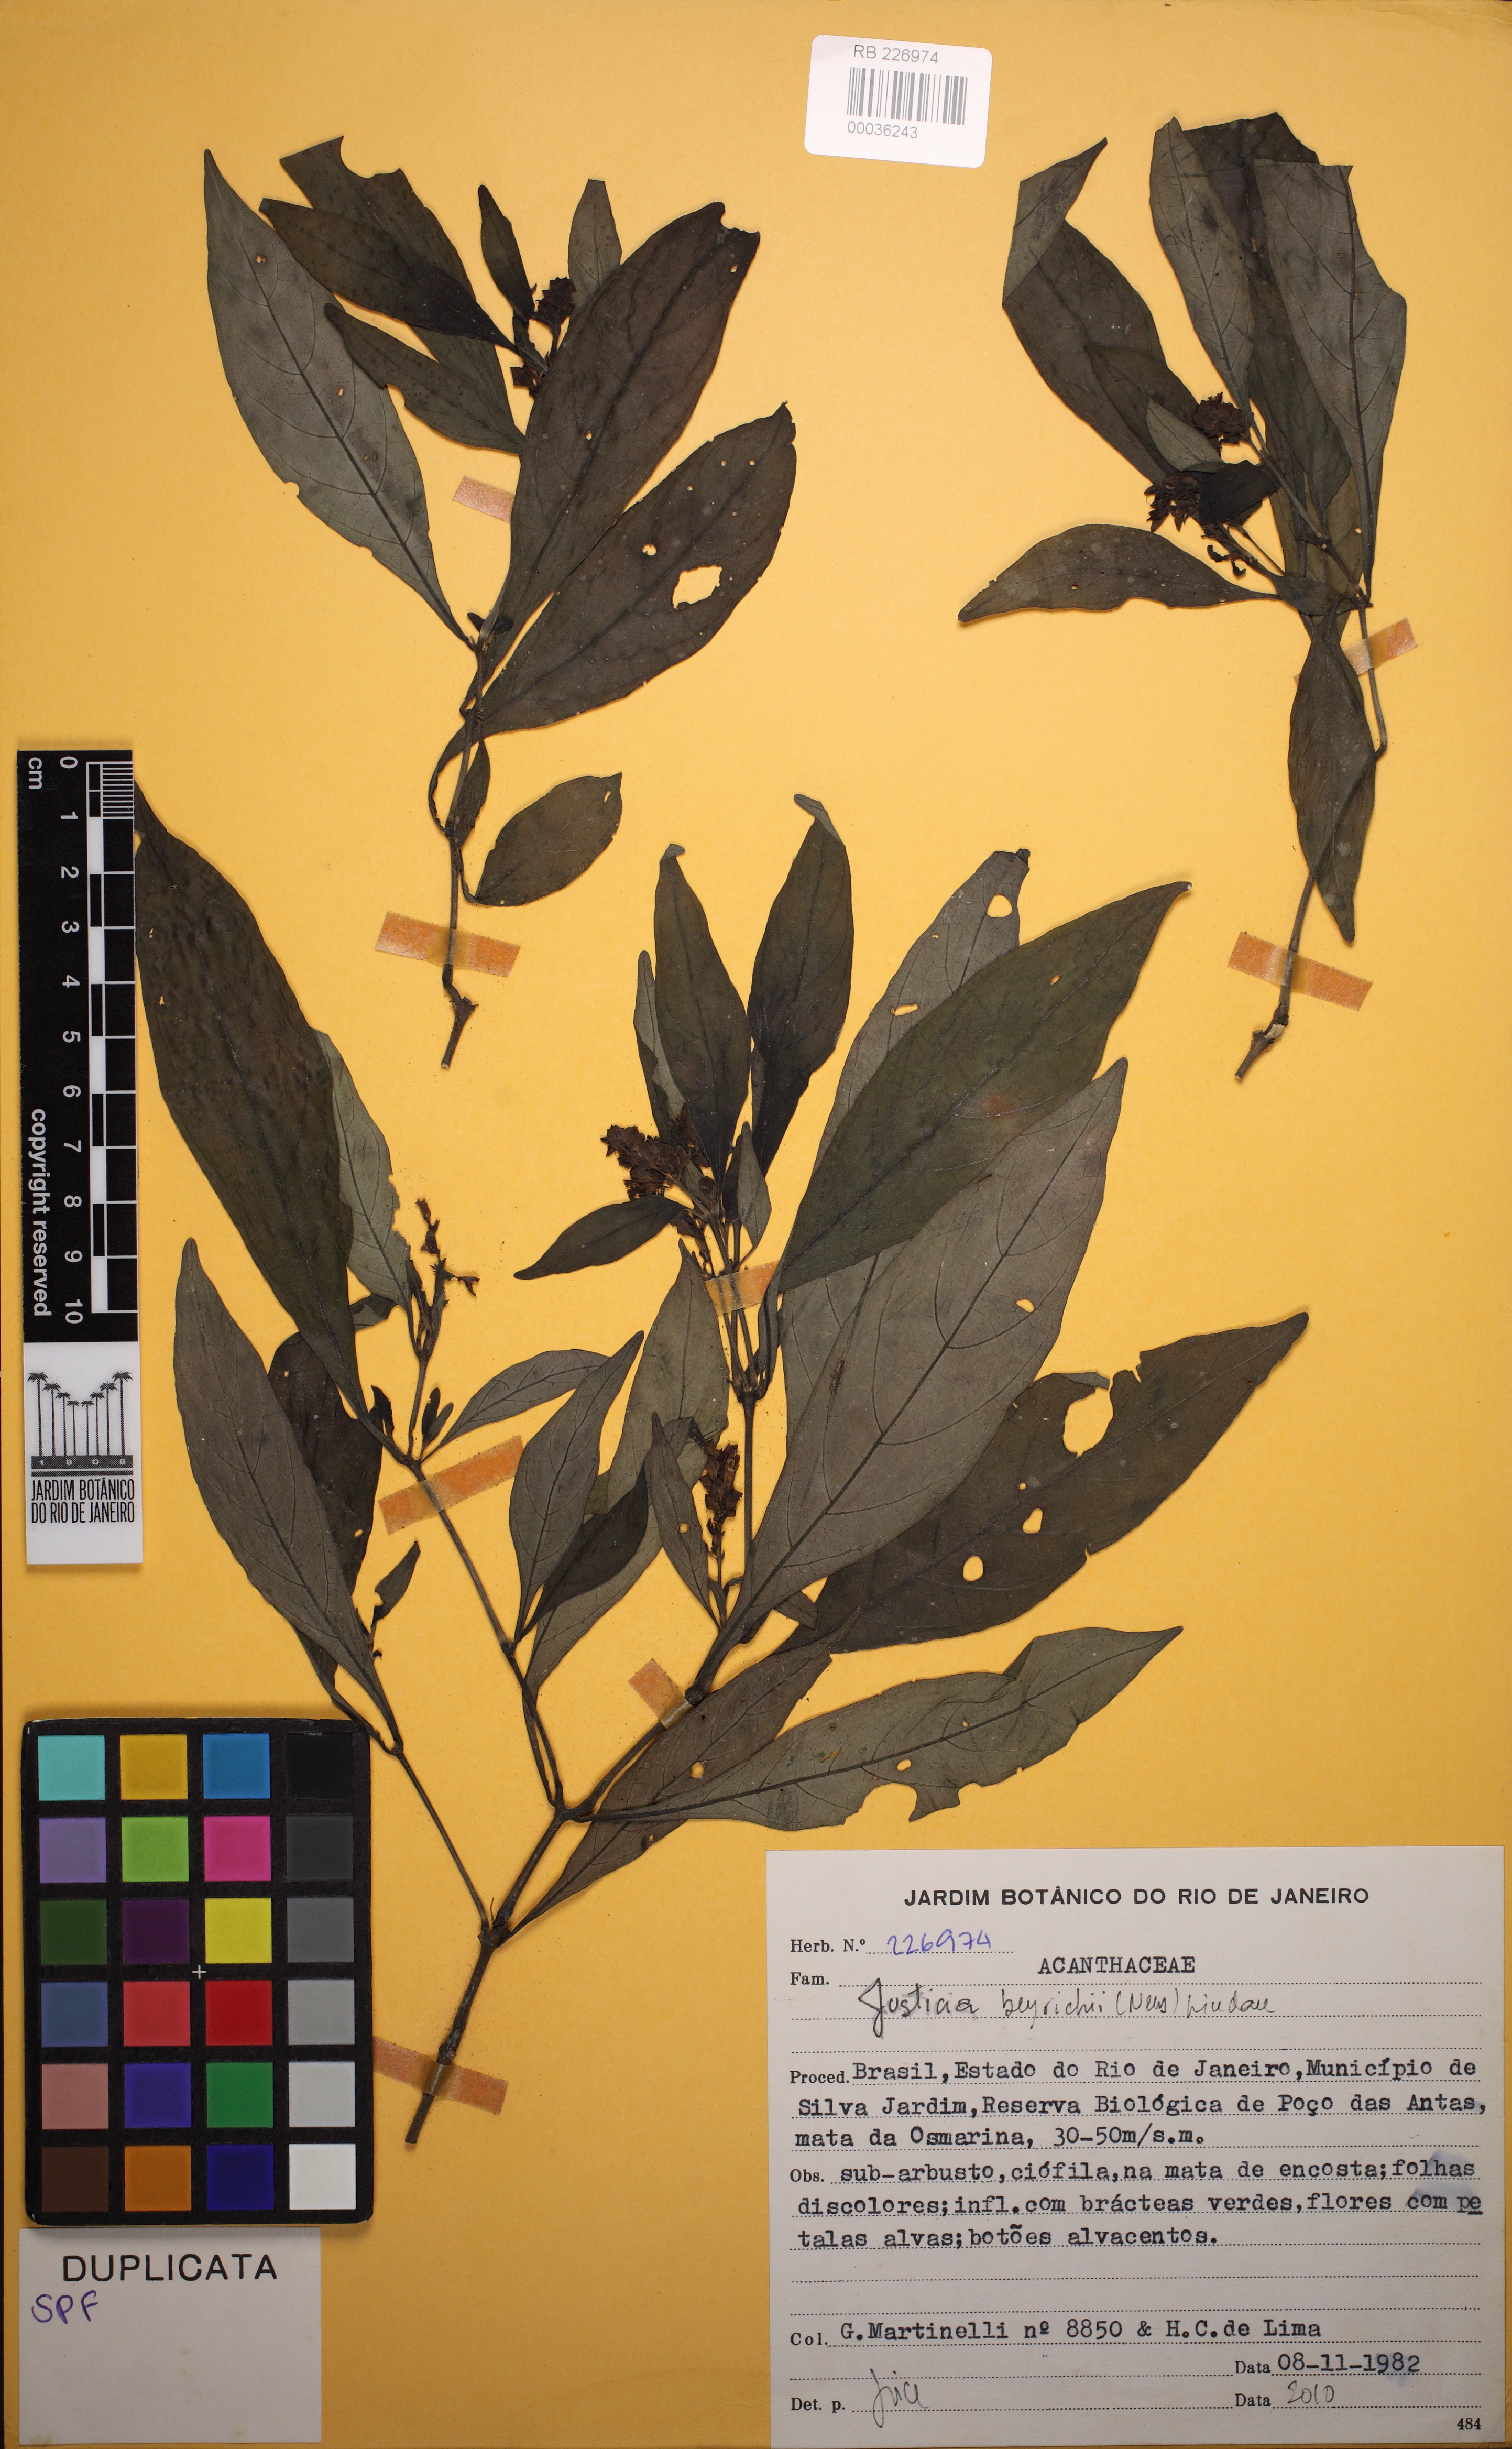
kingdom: Plantae
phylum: Tracheophyta
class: Magnoliopsida
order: Lamiales
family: Acanthaceae
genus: Dianthera
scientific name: Dianthera brasiliensis
